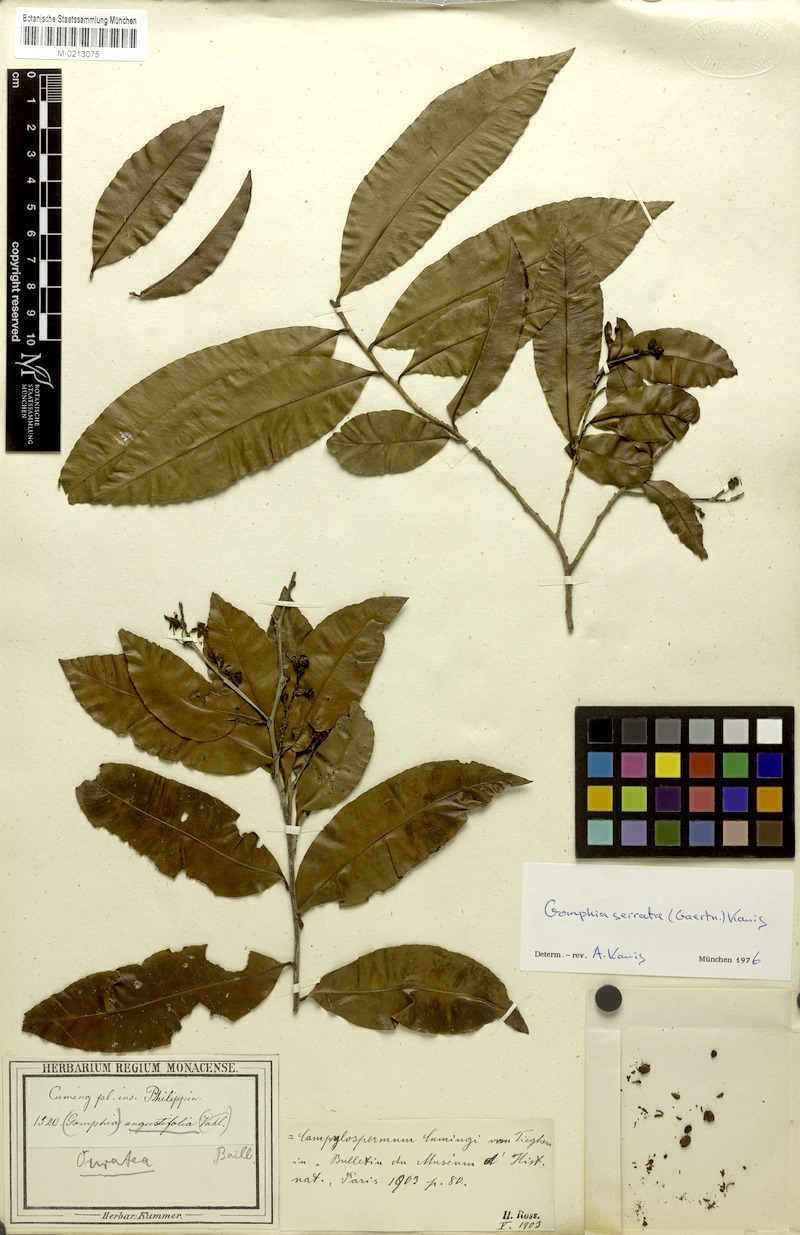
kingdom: Plantae
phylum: Tracheophyta
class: Magnoliopsida
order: Malpighiales
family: Ochnaceae
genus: Gomphia
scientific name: Gomphia serrata
